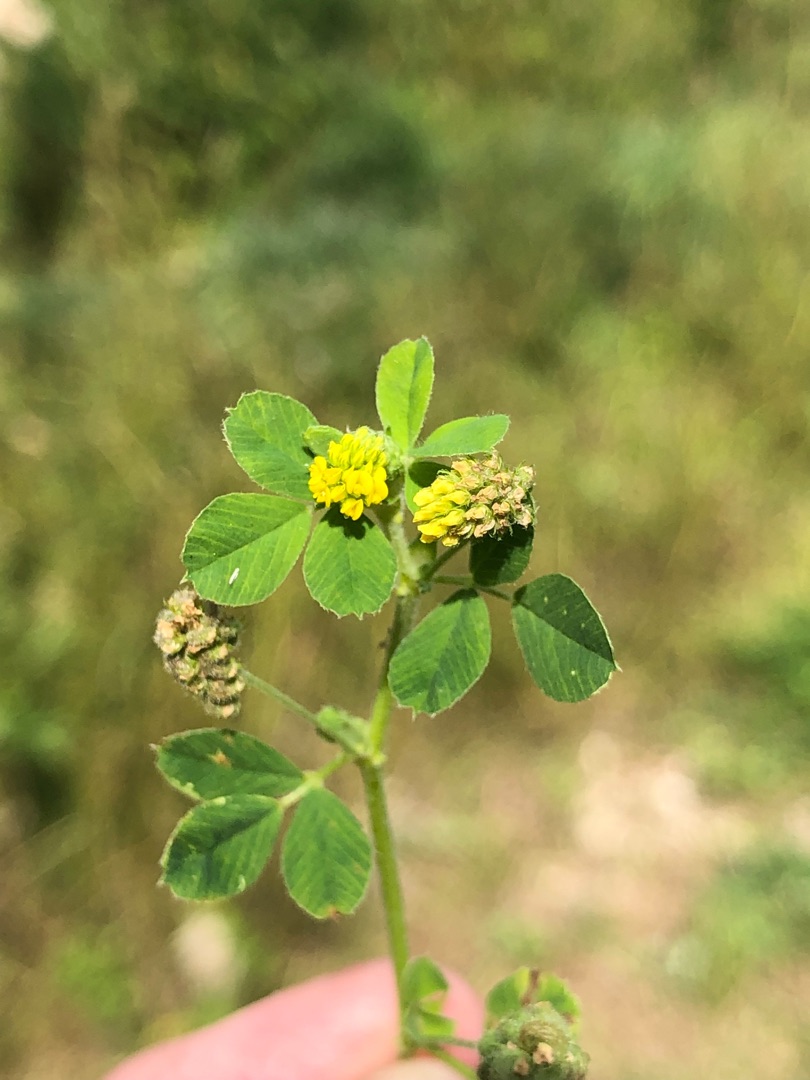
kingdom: Plantae
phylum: Tracheophyta
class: Magnoliopsida
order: Fabales
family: Fabaceae
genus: Medicago
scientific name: Medicago lupulina
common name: Humle-sneglebælg
